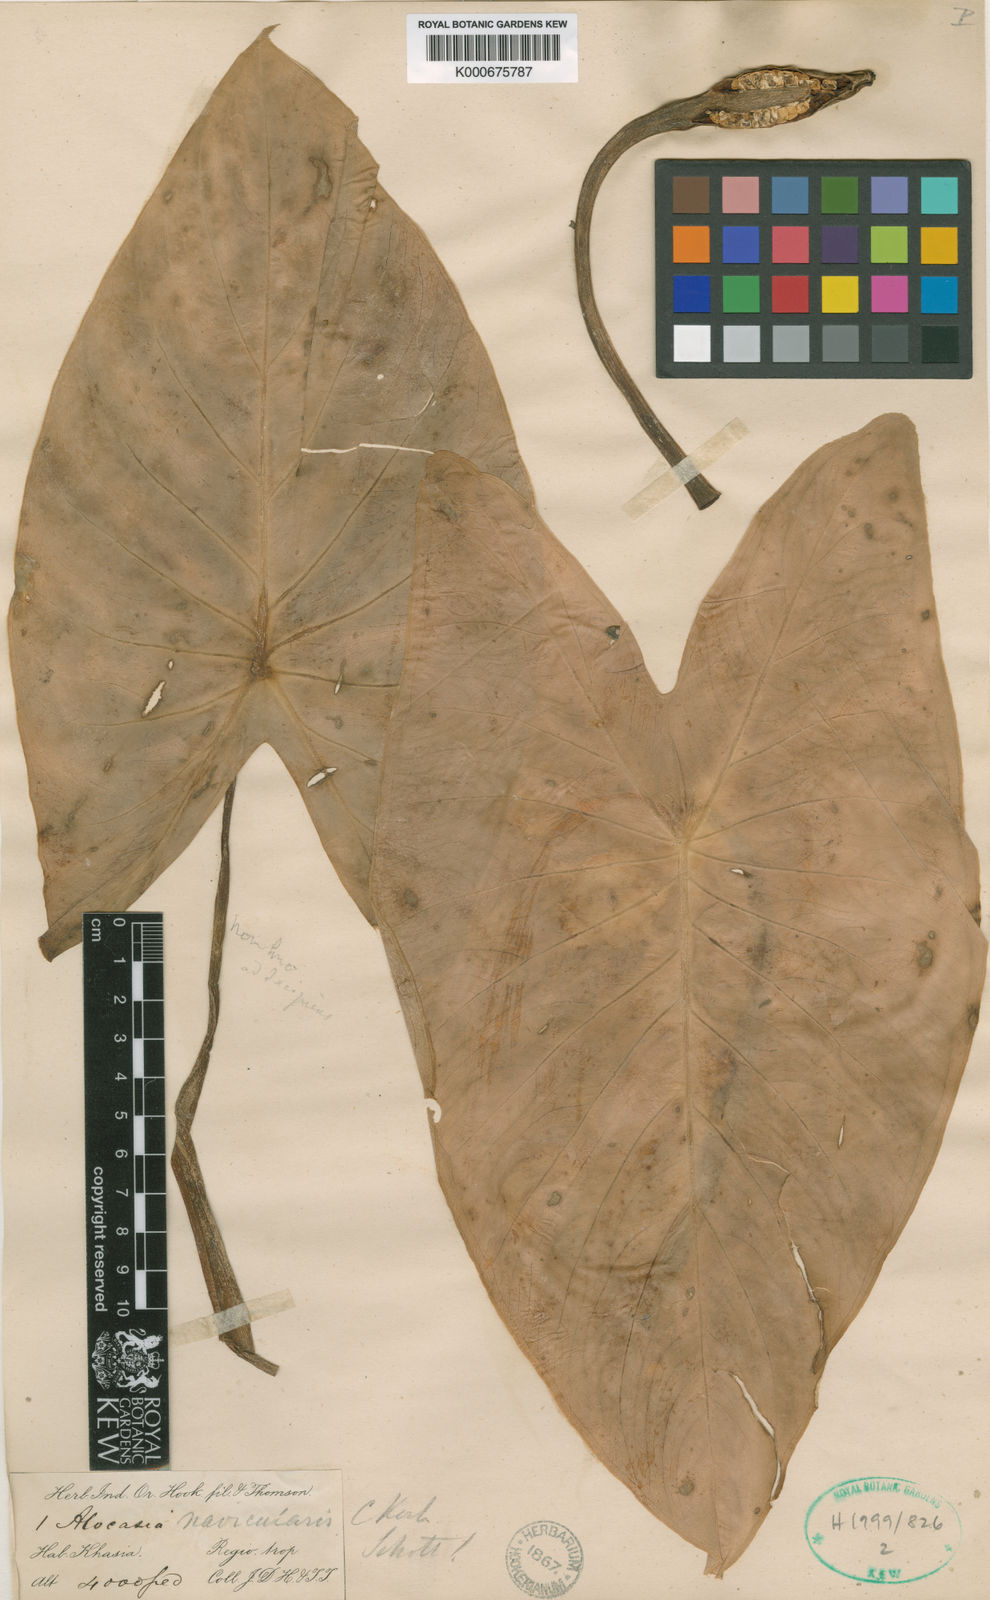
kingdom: Plantae
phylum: Tracheophyta
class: Liliopsida
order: Alismatales
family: Araceae
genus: Alocasia
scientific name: Alocasia
